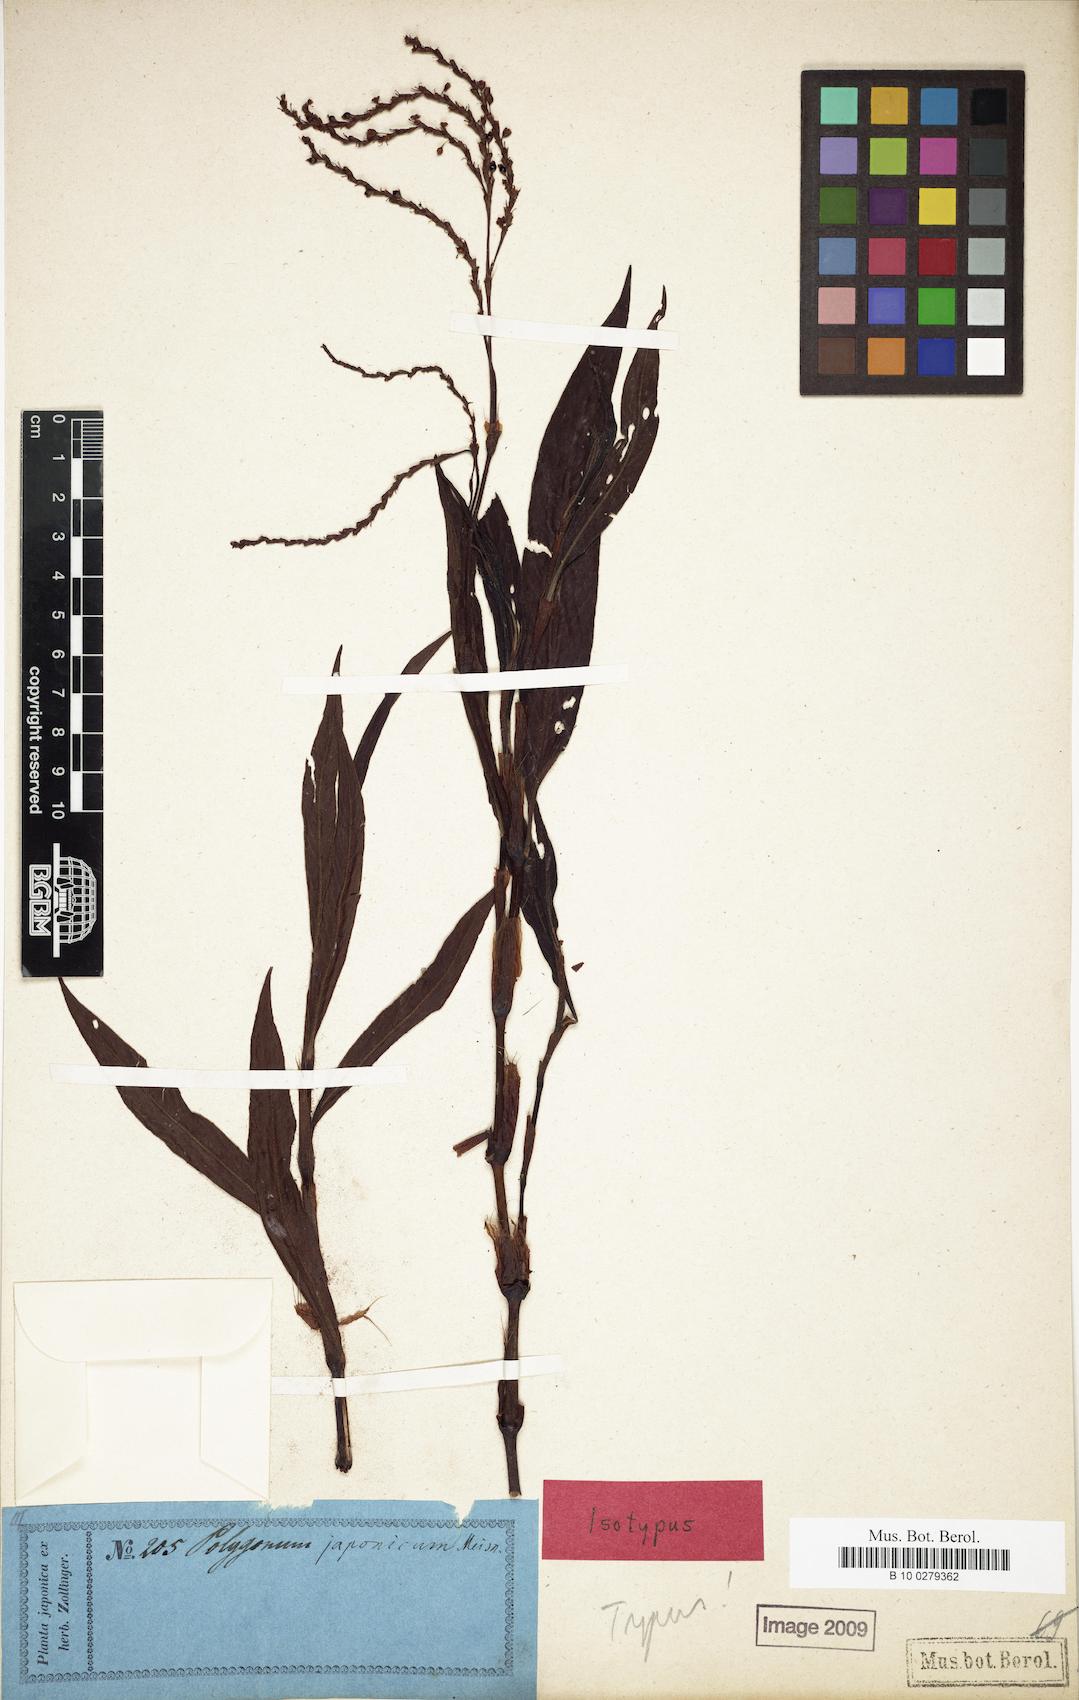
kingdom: Plantae
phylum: Tracheophyta
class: Magnoliopsida
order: Caryophyllales
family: Polygonaceae
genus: Persicaria
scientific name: Persicaria japonica
